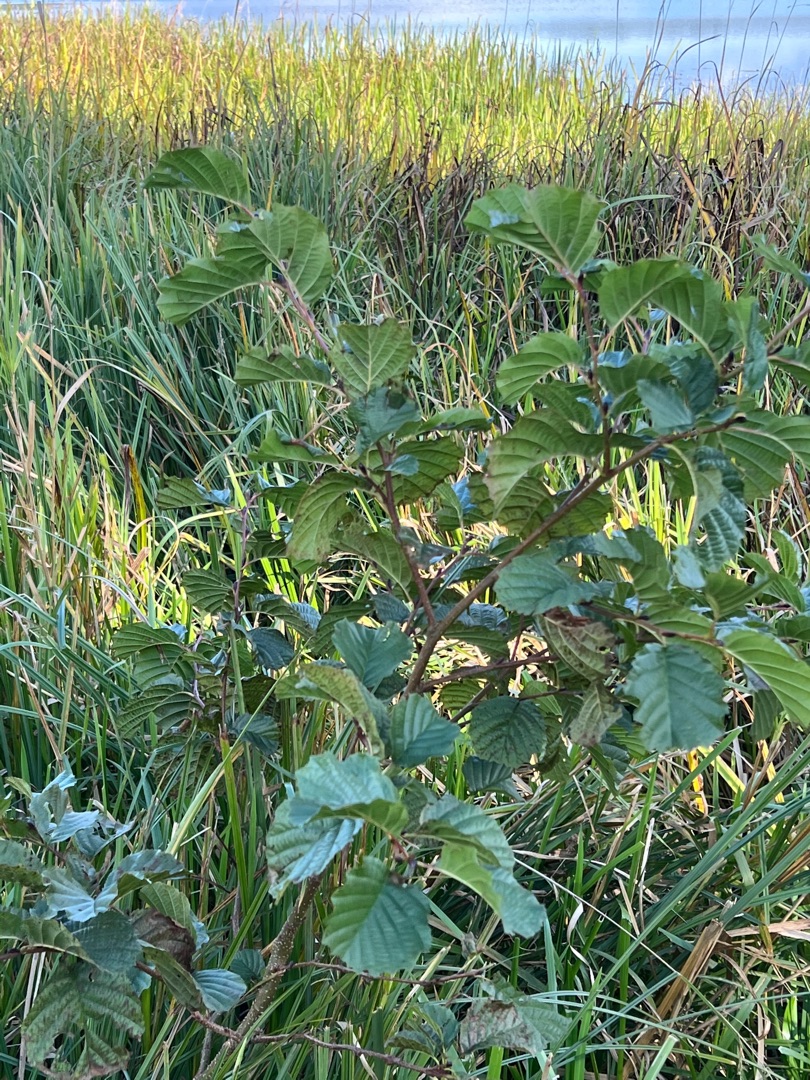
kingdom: Plantae
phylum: Tracheophyta
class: Magnoliopsida
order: Fagales
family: Betulaceae
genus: Alnus
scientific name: Alnus glutinosa
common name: Rød-el
